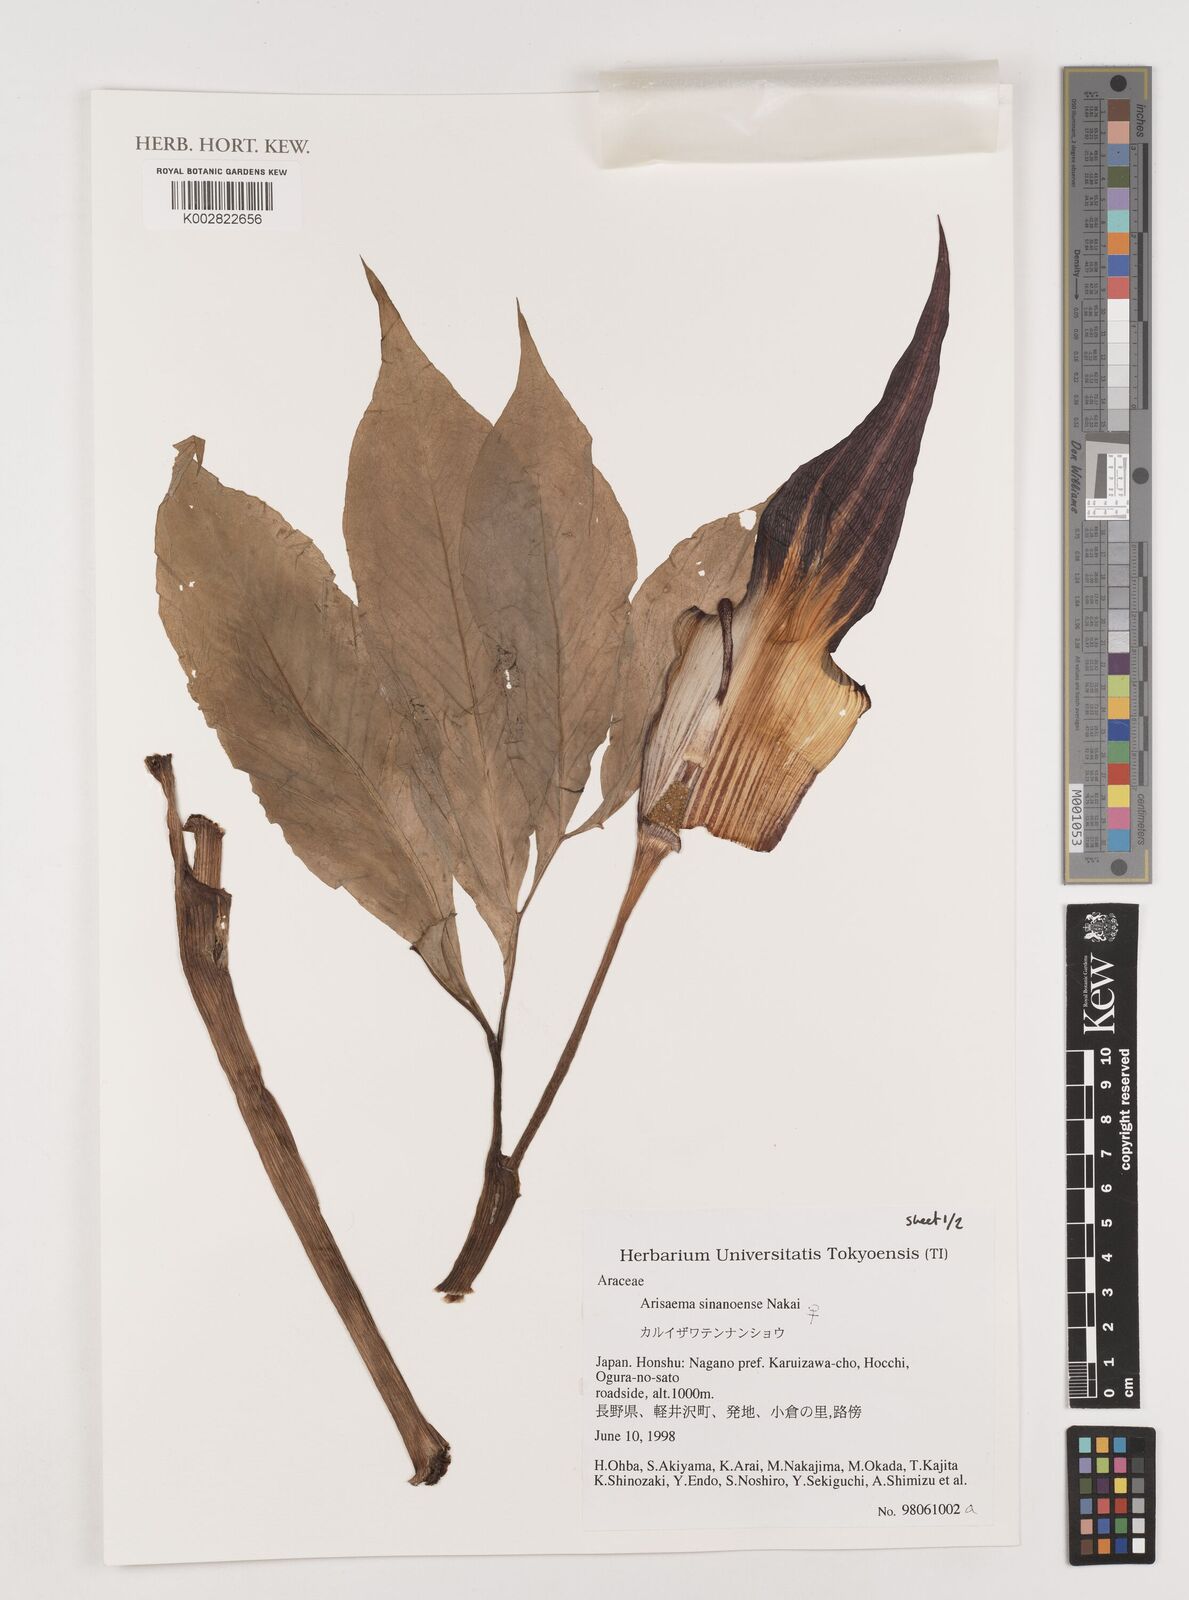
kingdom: Plantae
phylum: Tracheophyta
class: Liliopsida
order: Alismatales
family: Araceae
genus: Arisaema
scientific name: Arisaema serratum
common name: Japanese arisaema
